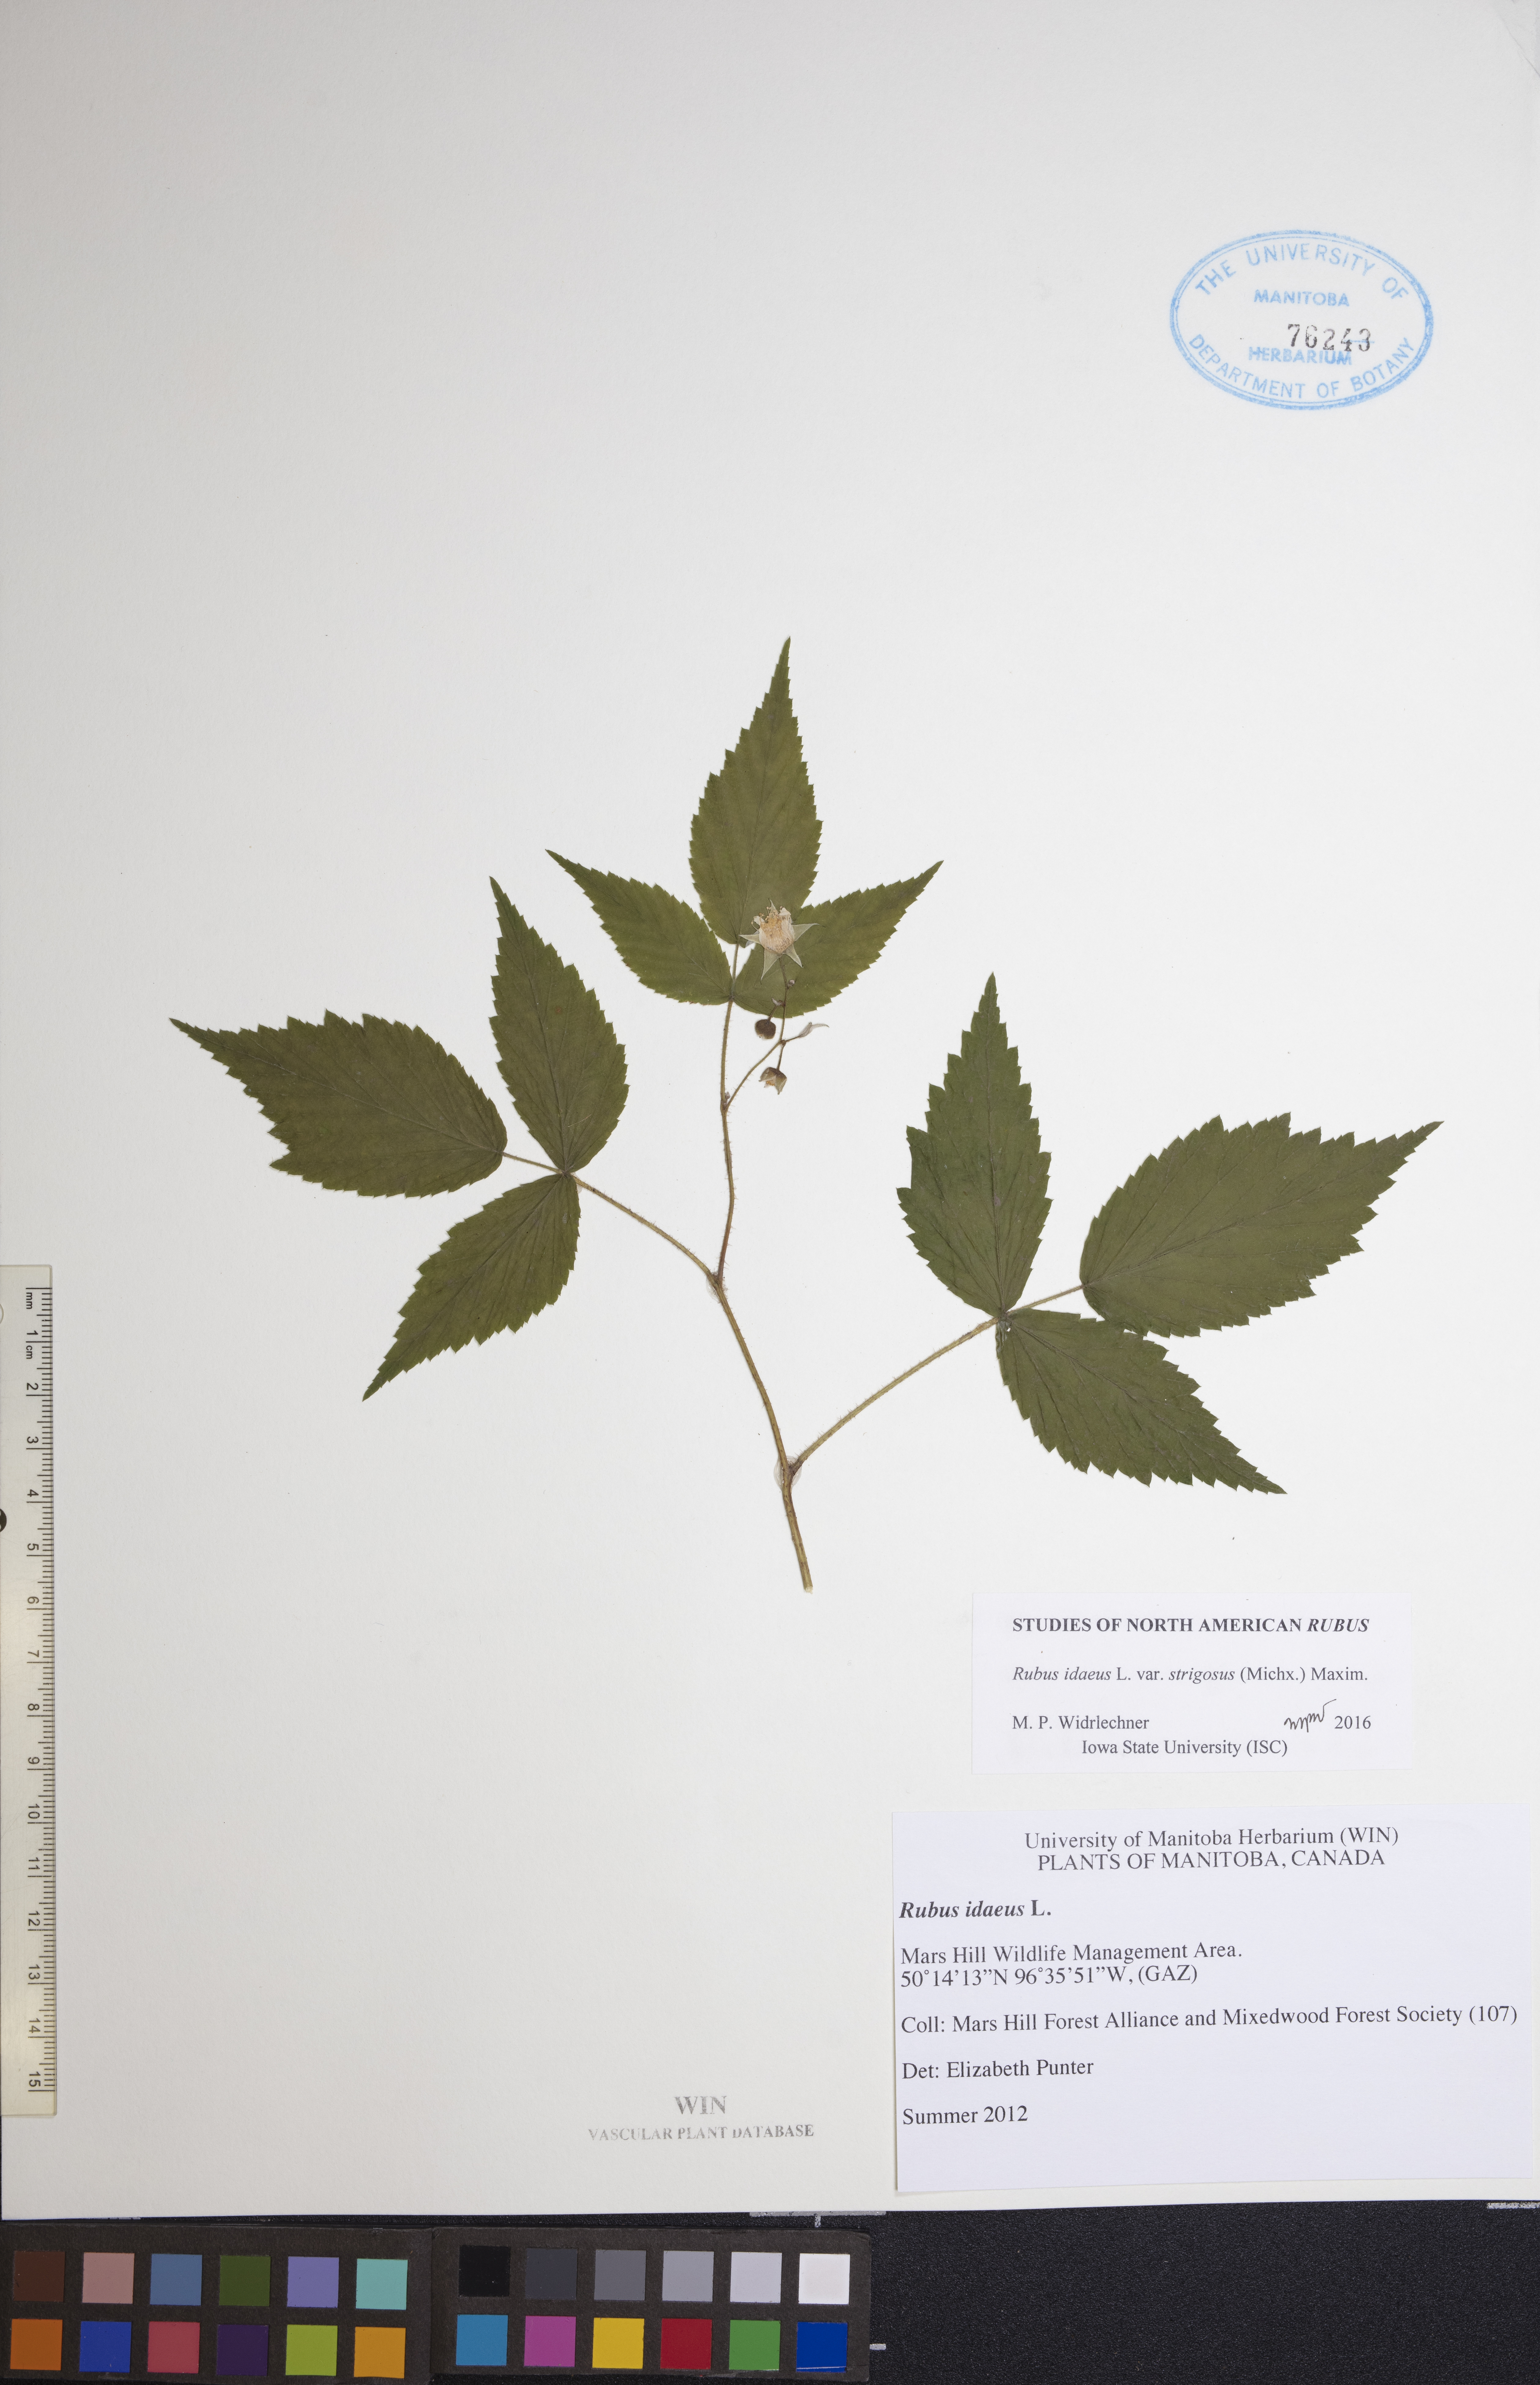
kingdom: Plantae
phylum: Tracheophyta
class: Magnoliopsida
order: Rosales
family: Rosaceae
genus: Rubus
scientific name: Rubus idaeus
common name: Raspberry
